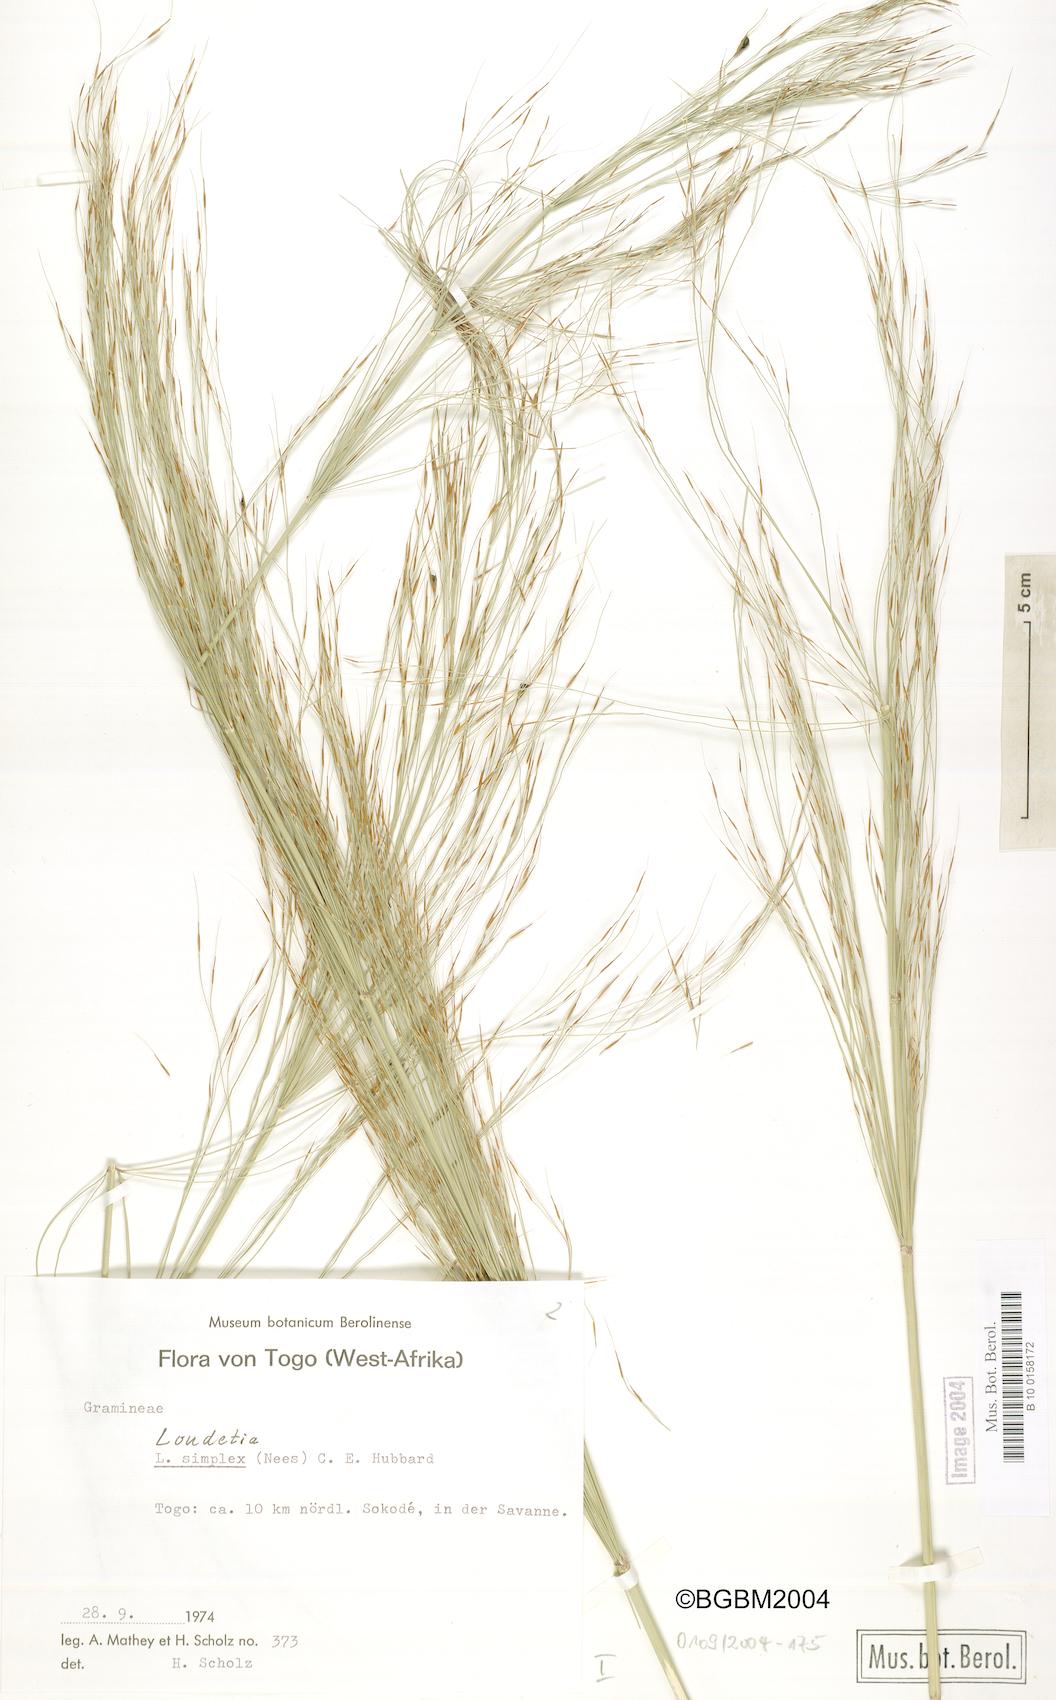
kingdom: Plantae
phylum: Tracheophyta
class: Liliopsida
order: Poales
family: Poaceae
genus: Loudetia
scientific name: Loudetia simplex
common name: Common russet grass
